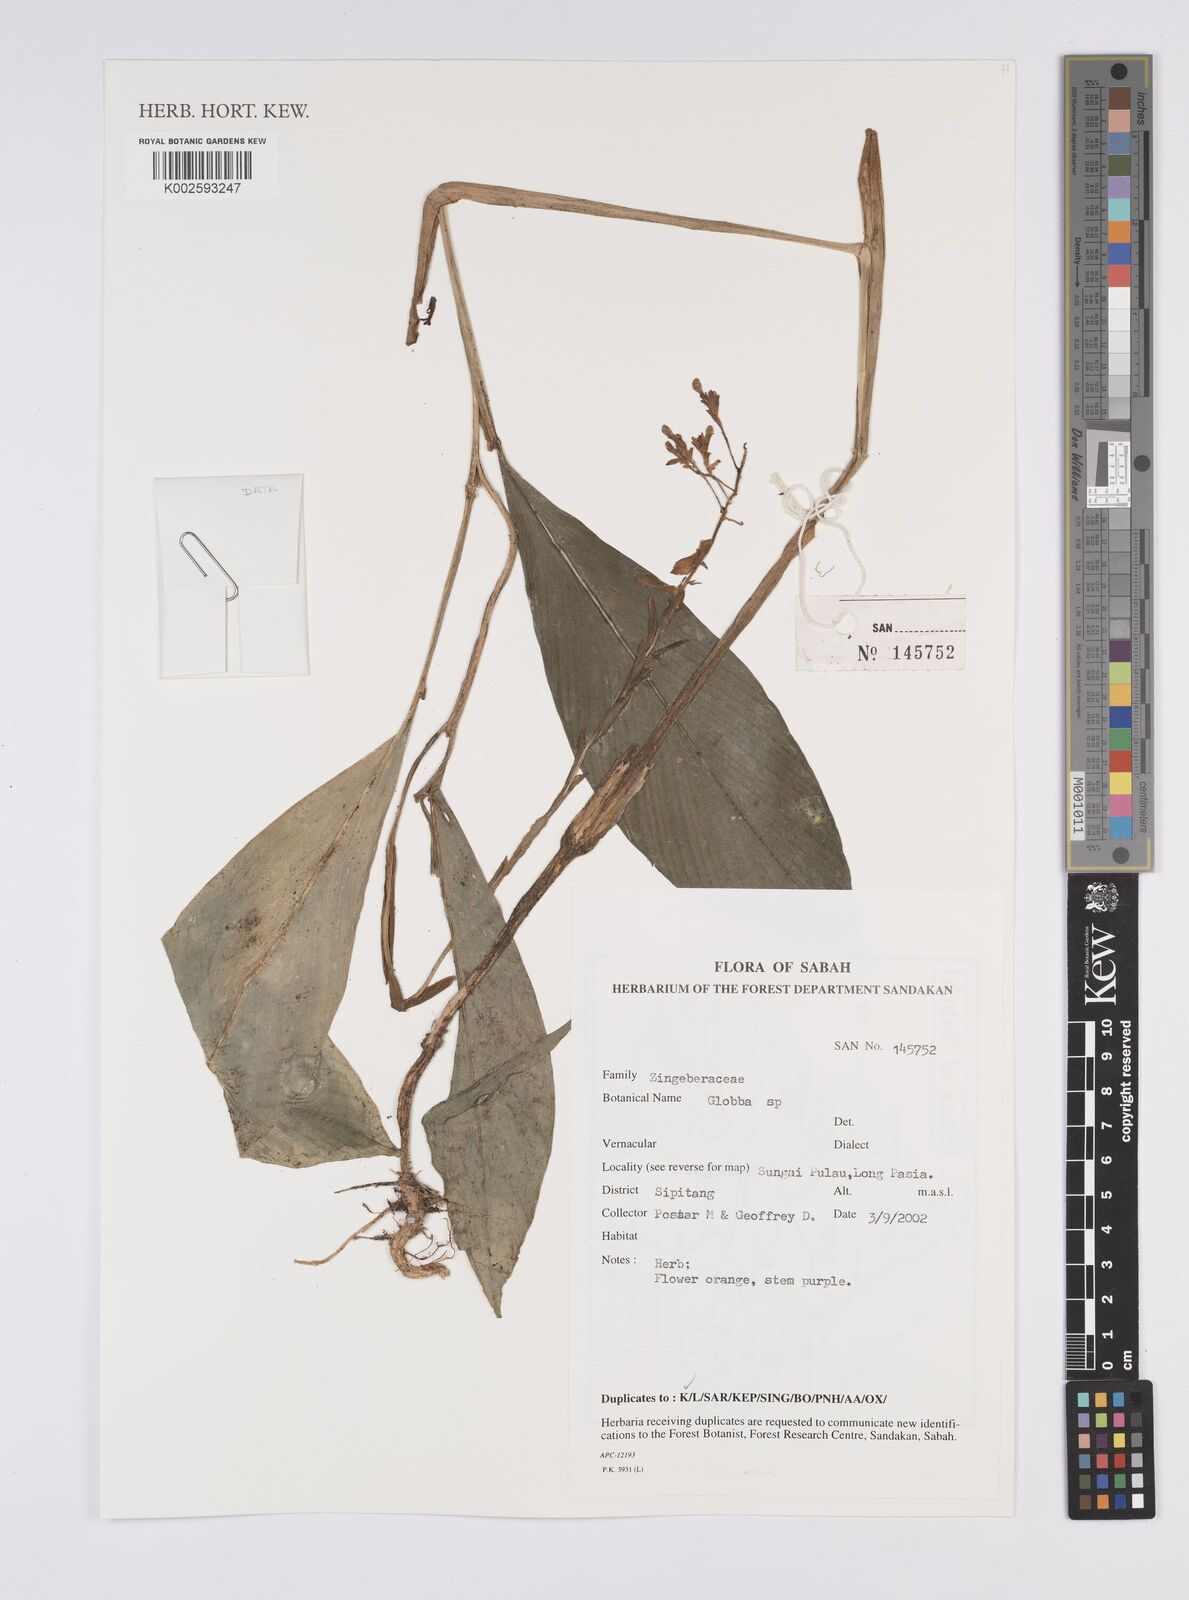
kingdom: Plantae
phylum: Tracheophyta
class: Liliopsida
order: Zingiberales
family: Zingiberaceae
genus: Globba
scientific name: Globba
